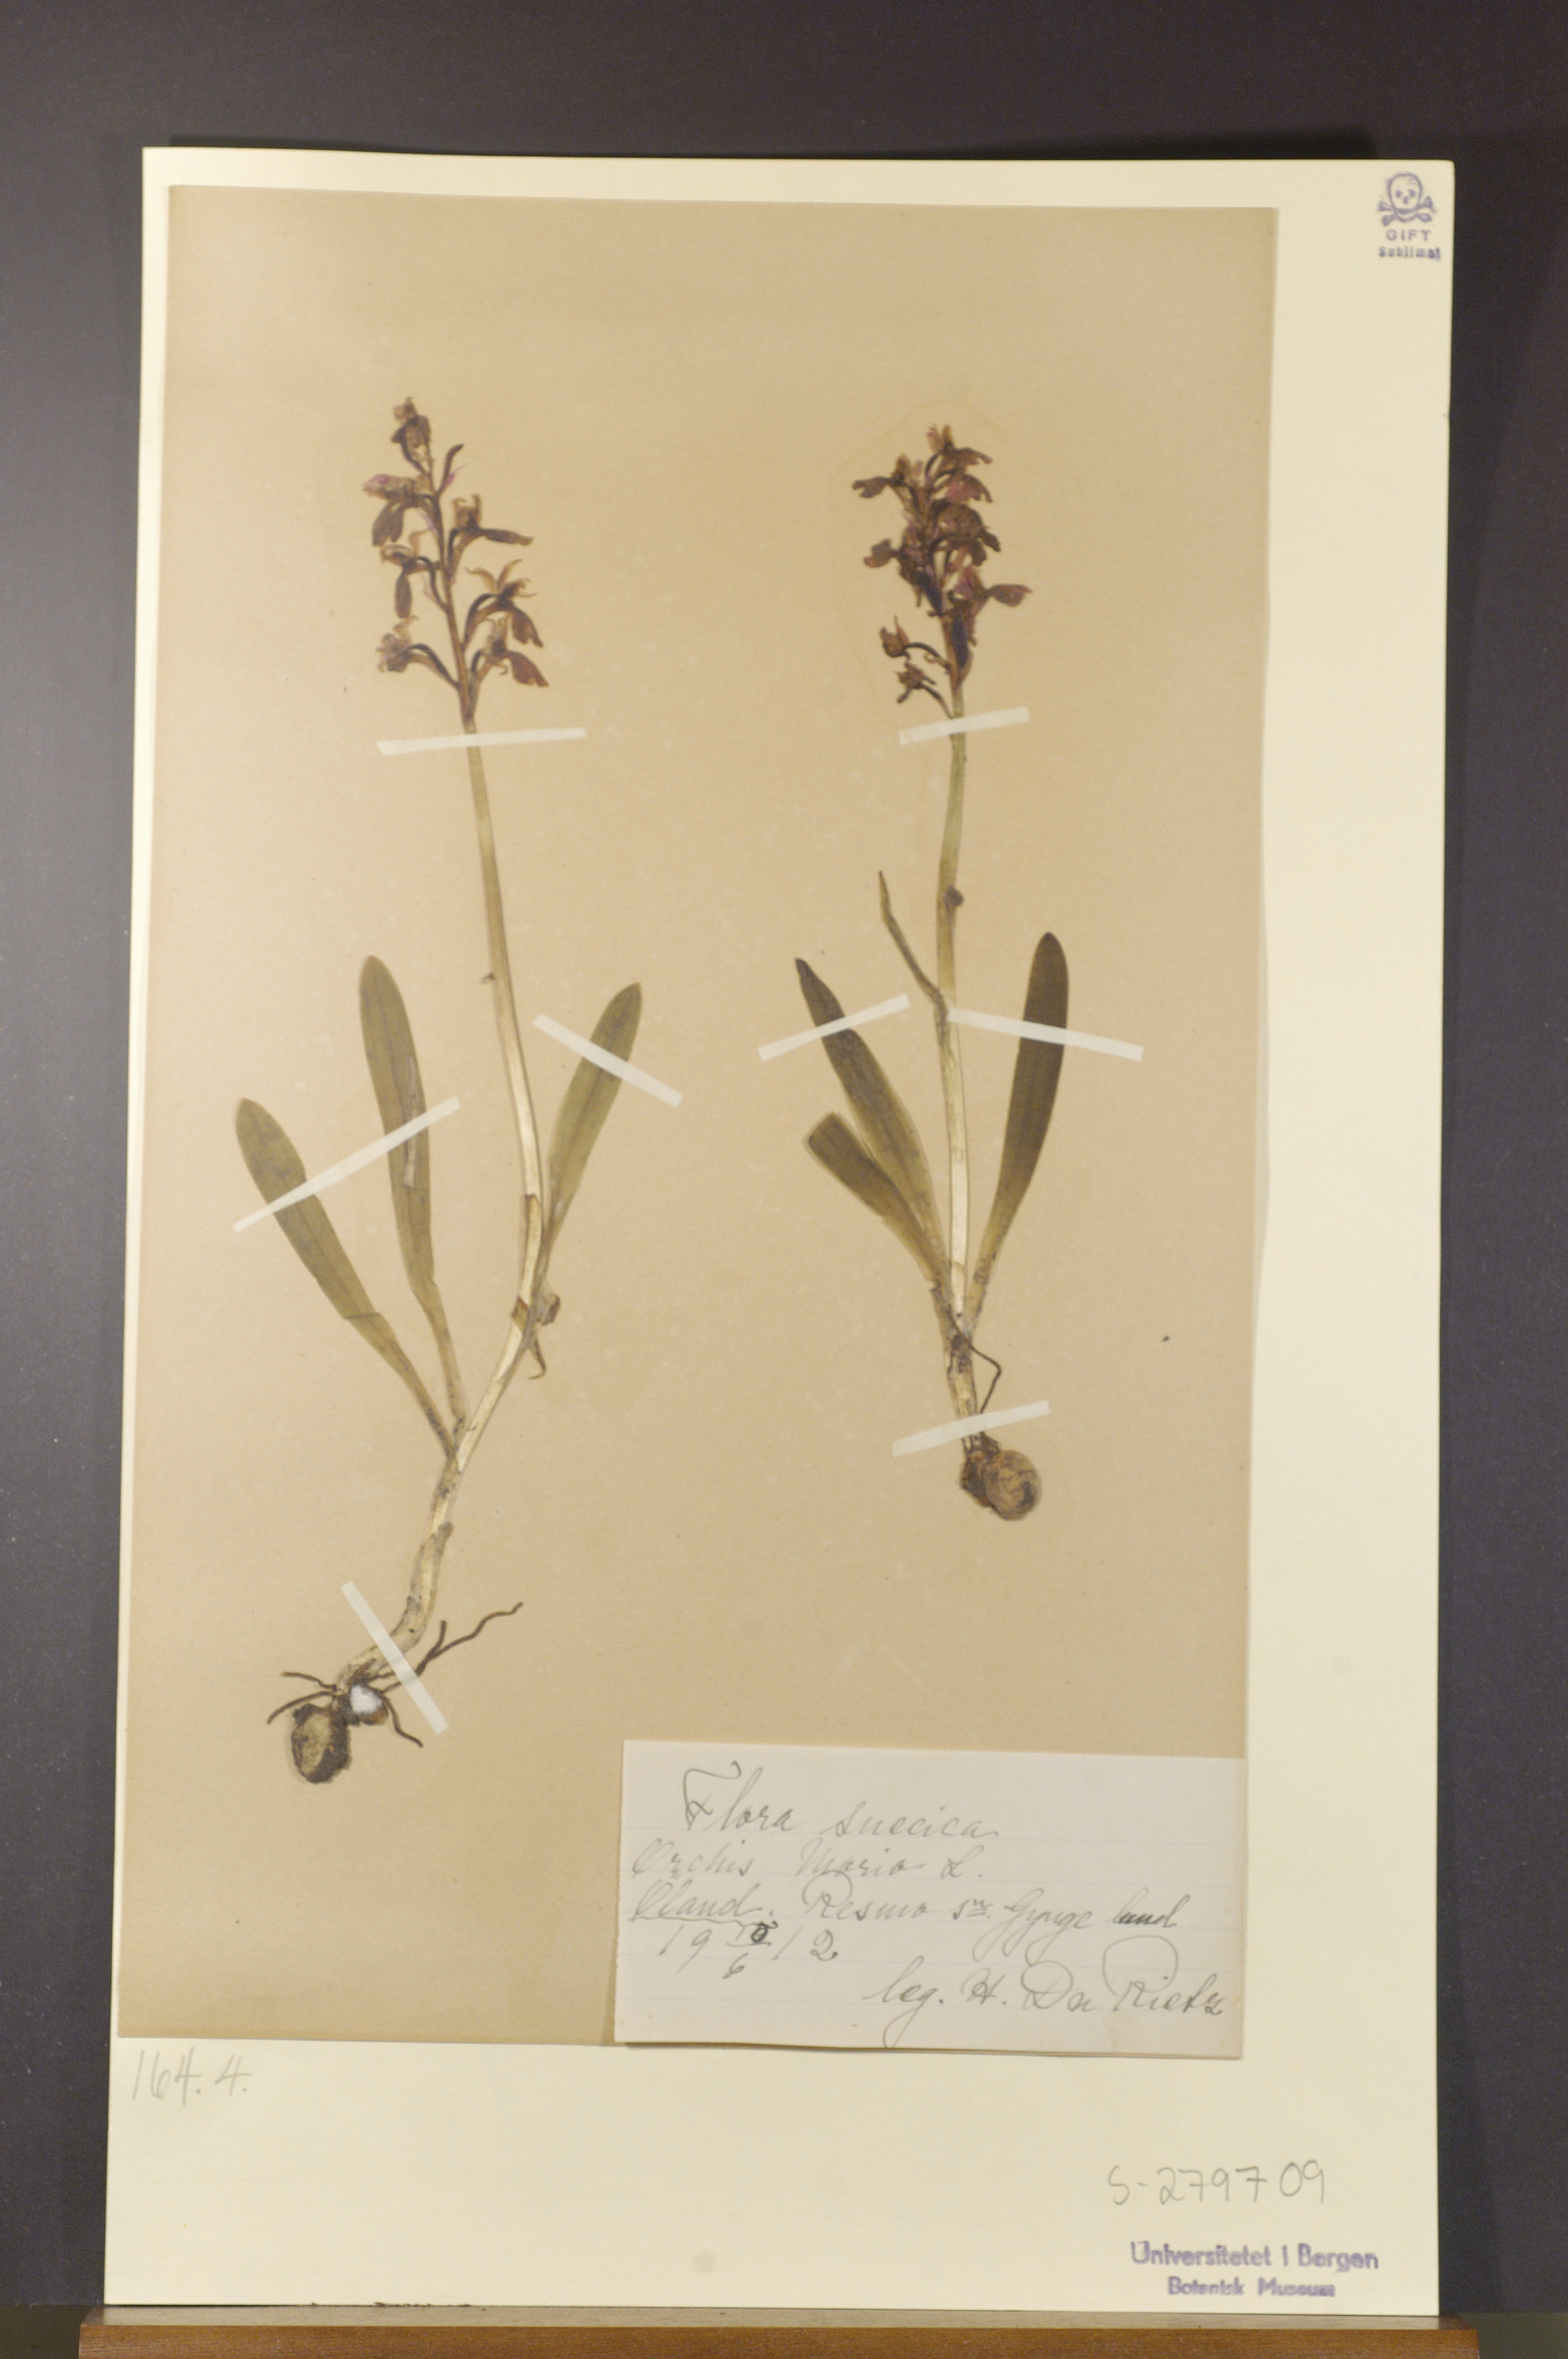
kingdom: Plantae
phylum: Tracheophyta
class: Liliopsida
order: Asparagales
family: Orchidaceae
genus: Anacamptis
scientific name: Anacamptis morio
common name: Green-winged orchid
